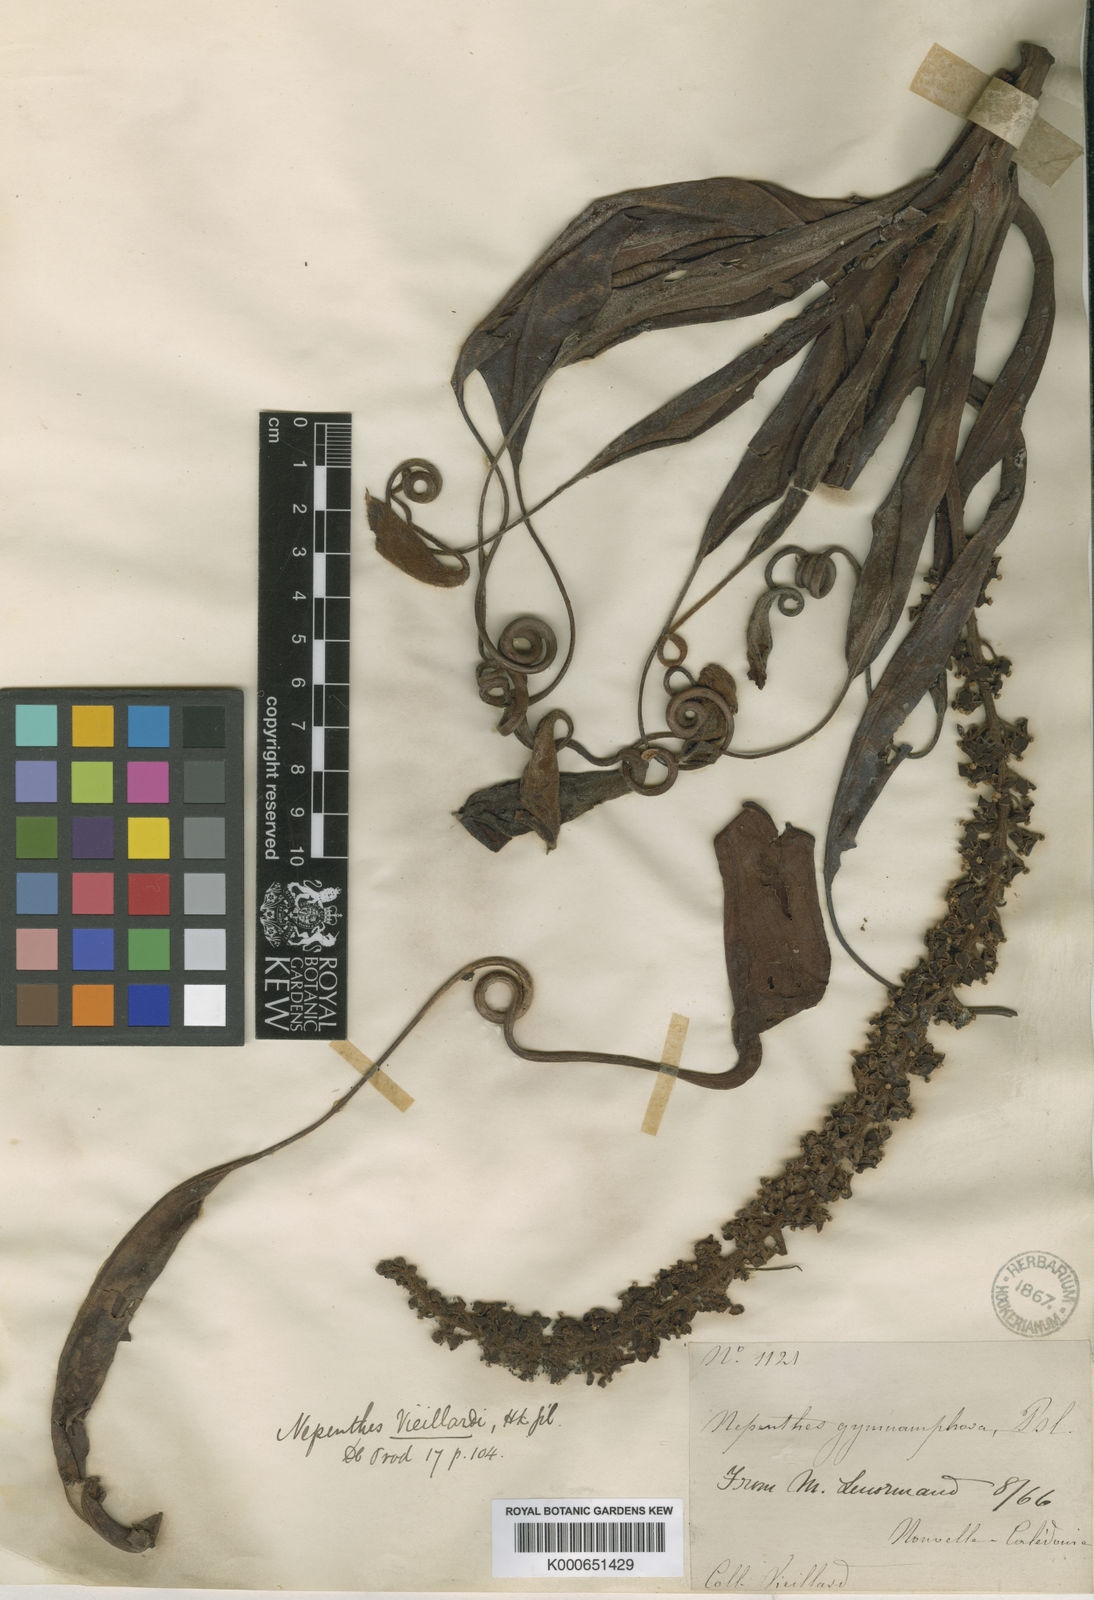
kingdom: Plantae
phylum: Tracheophyta
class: Magnoliopsida
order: Caryophyllales
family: Nepenthaceae
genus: Nepenthes
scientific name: Nepenthes vieillardii
